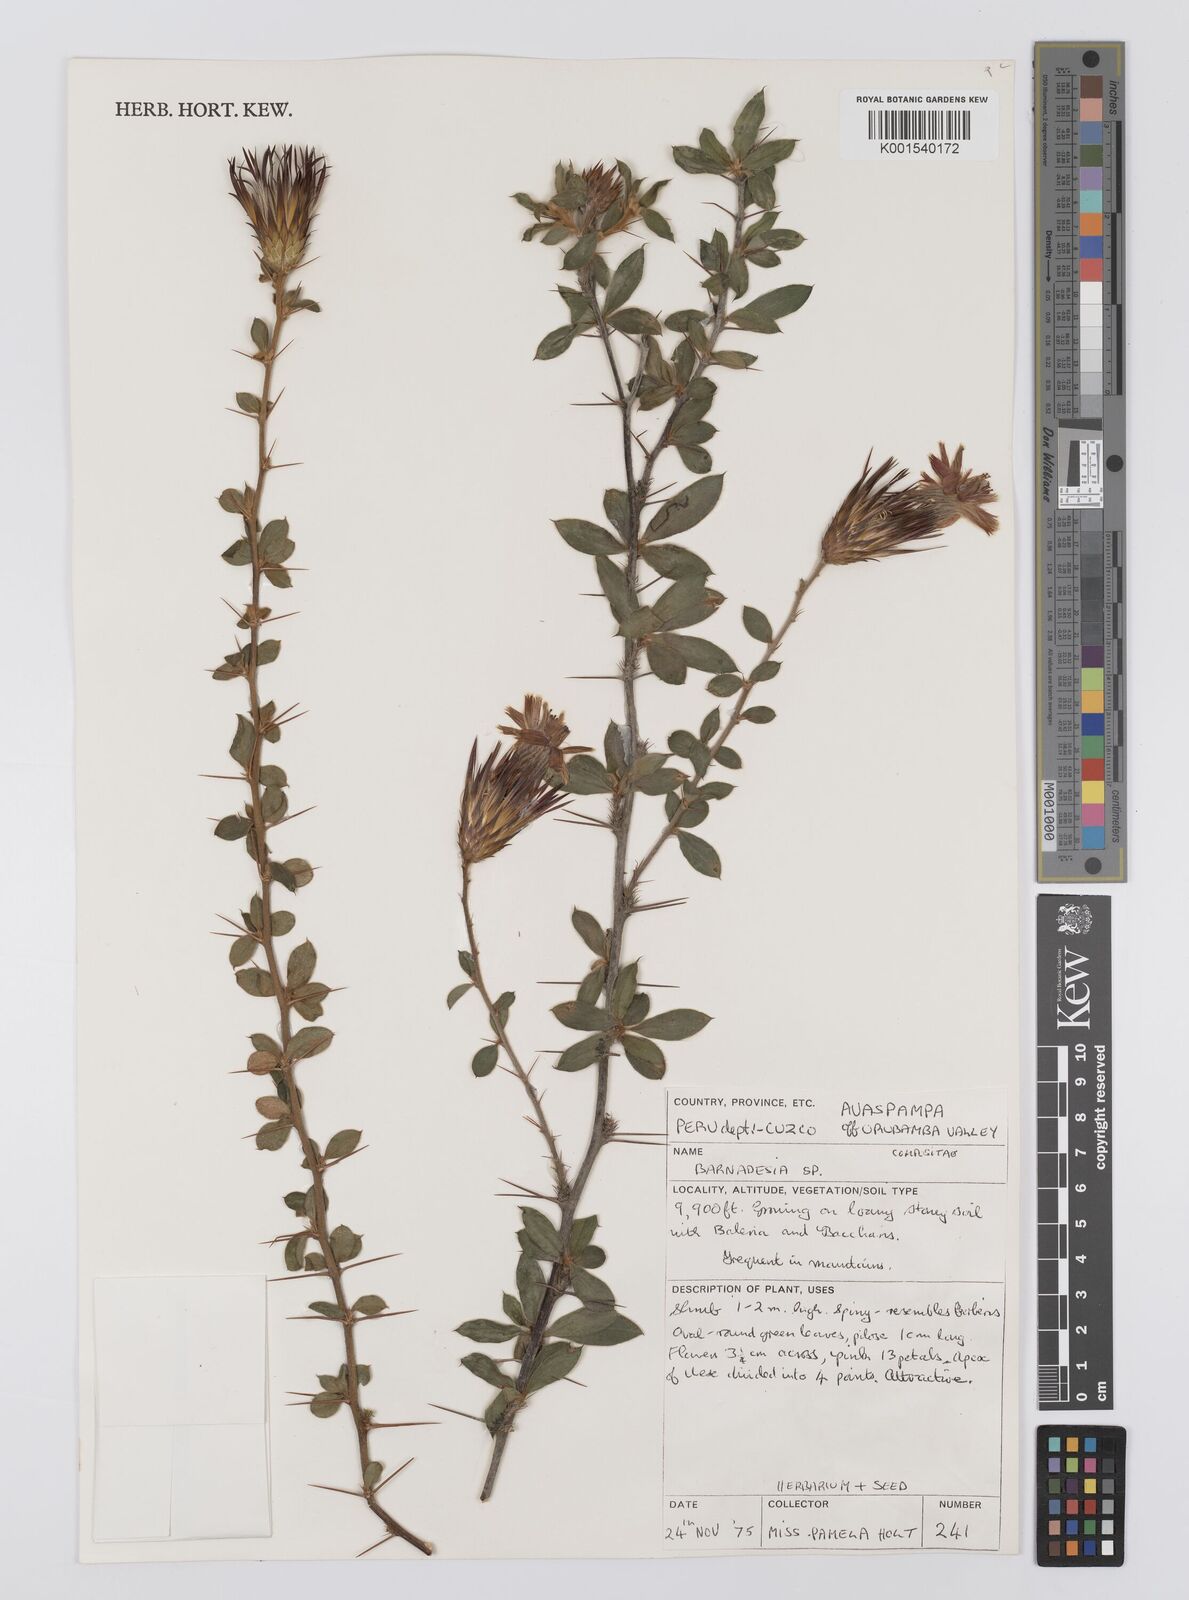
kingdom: Plantae
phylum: Tracheophyta
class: Magnoliopsida
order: Asterales
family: Asteraceae
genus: Barnadesia
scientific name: Barnadesia
